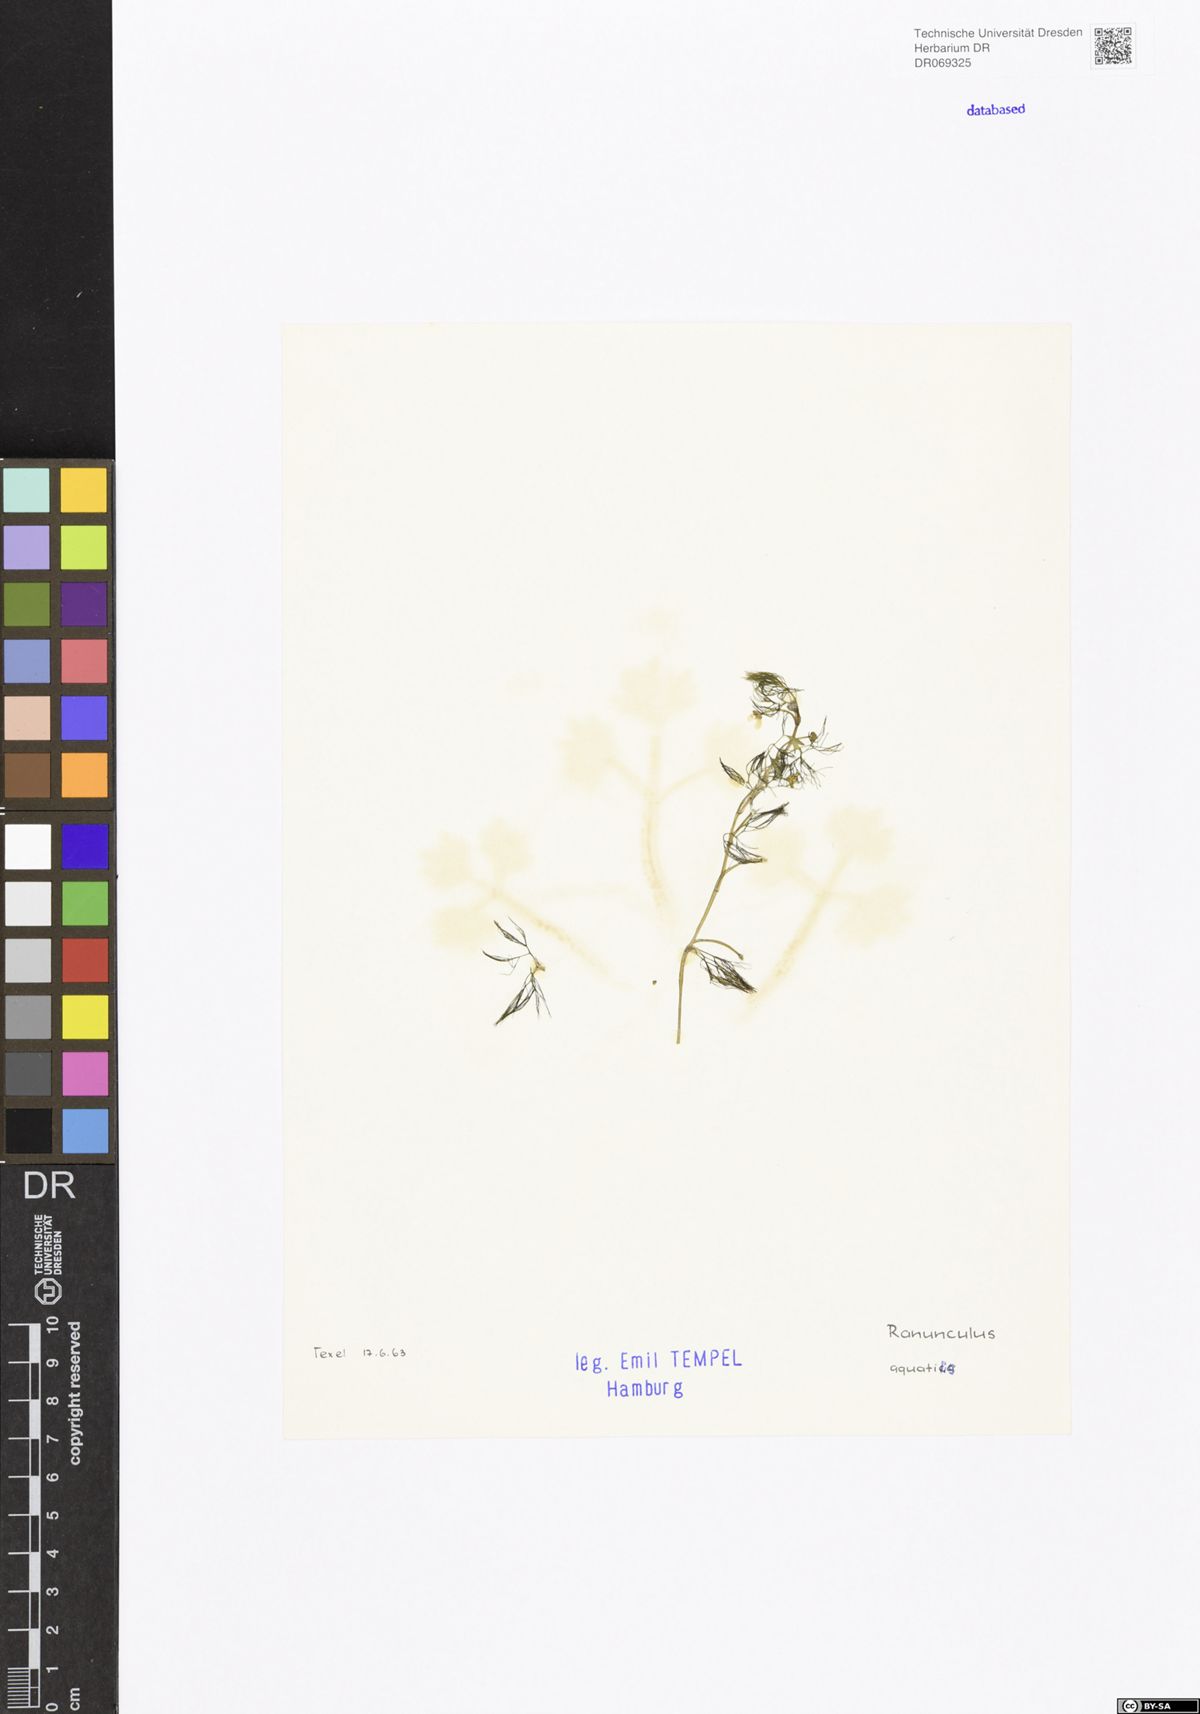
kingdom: Plantae
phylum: Tracheophyta
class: Magnoliopsida
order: Ranunculales
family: Ranunculaceae
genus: Ranunculus
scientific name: Ranunculus aquatilis
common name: Common water-crowfoot
